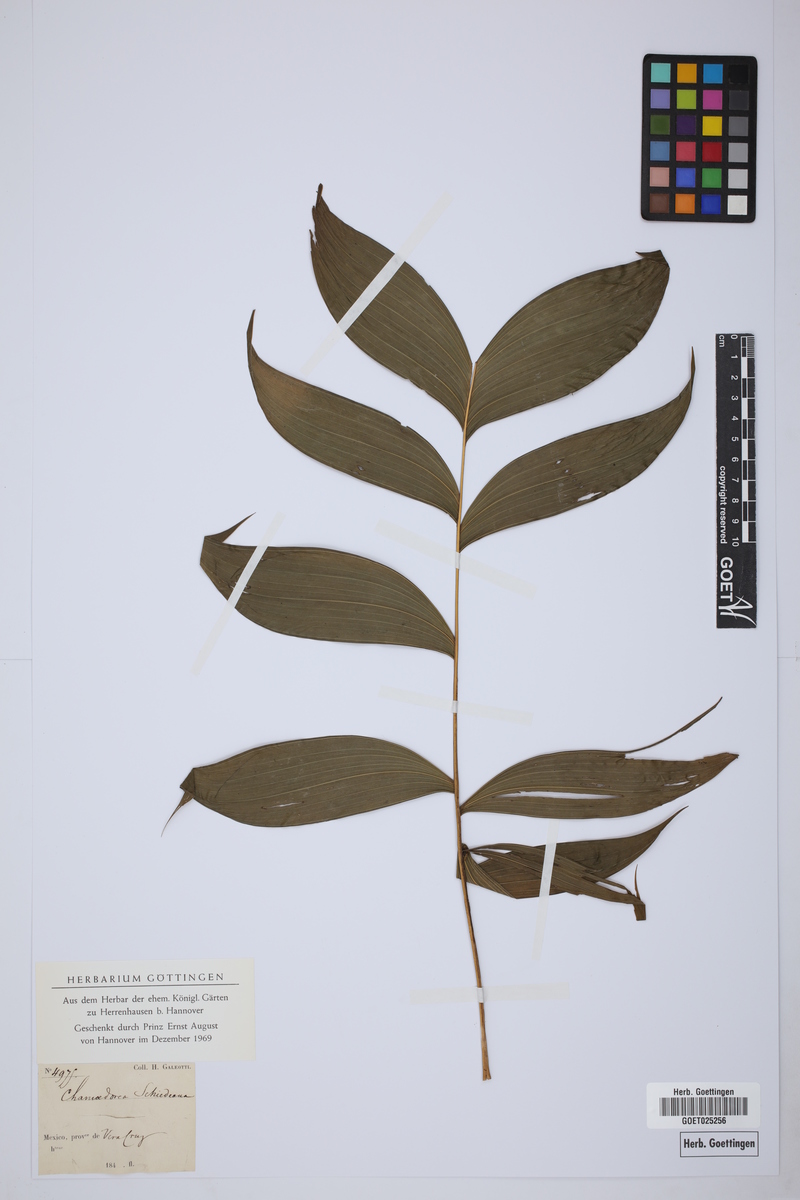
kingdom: Plantae
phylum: Tracheophyta
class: Liliopsida
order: Arecales
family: Arecaceae
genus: Chamaedorea
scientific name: Chamaedorea schiedeana
